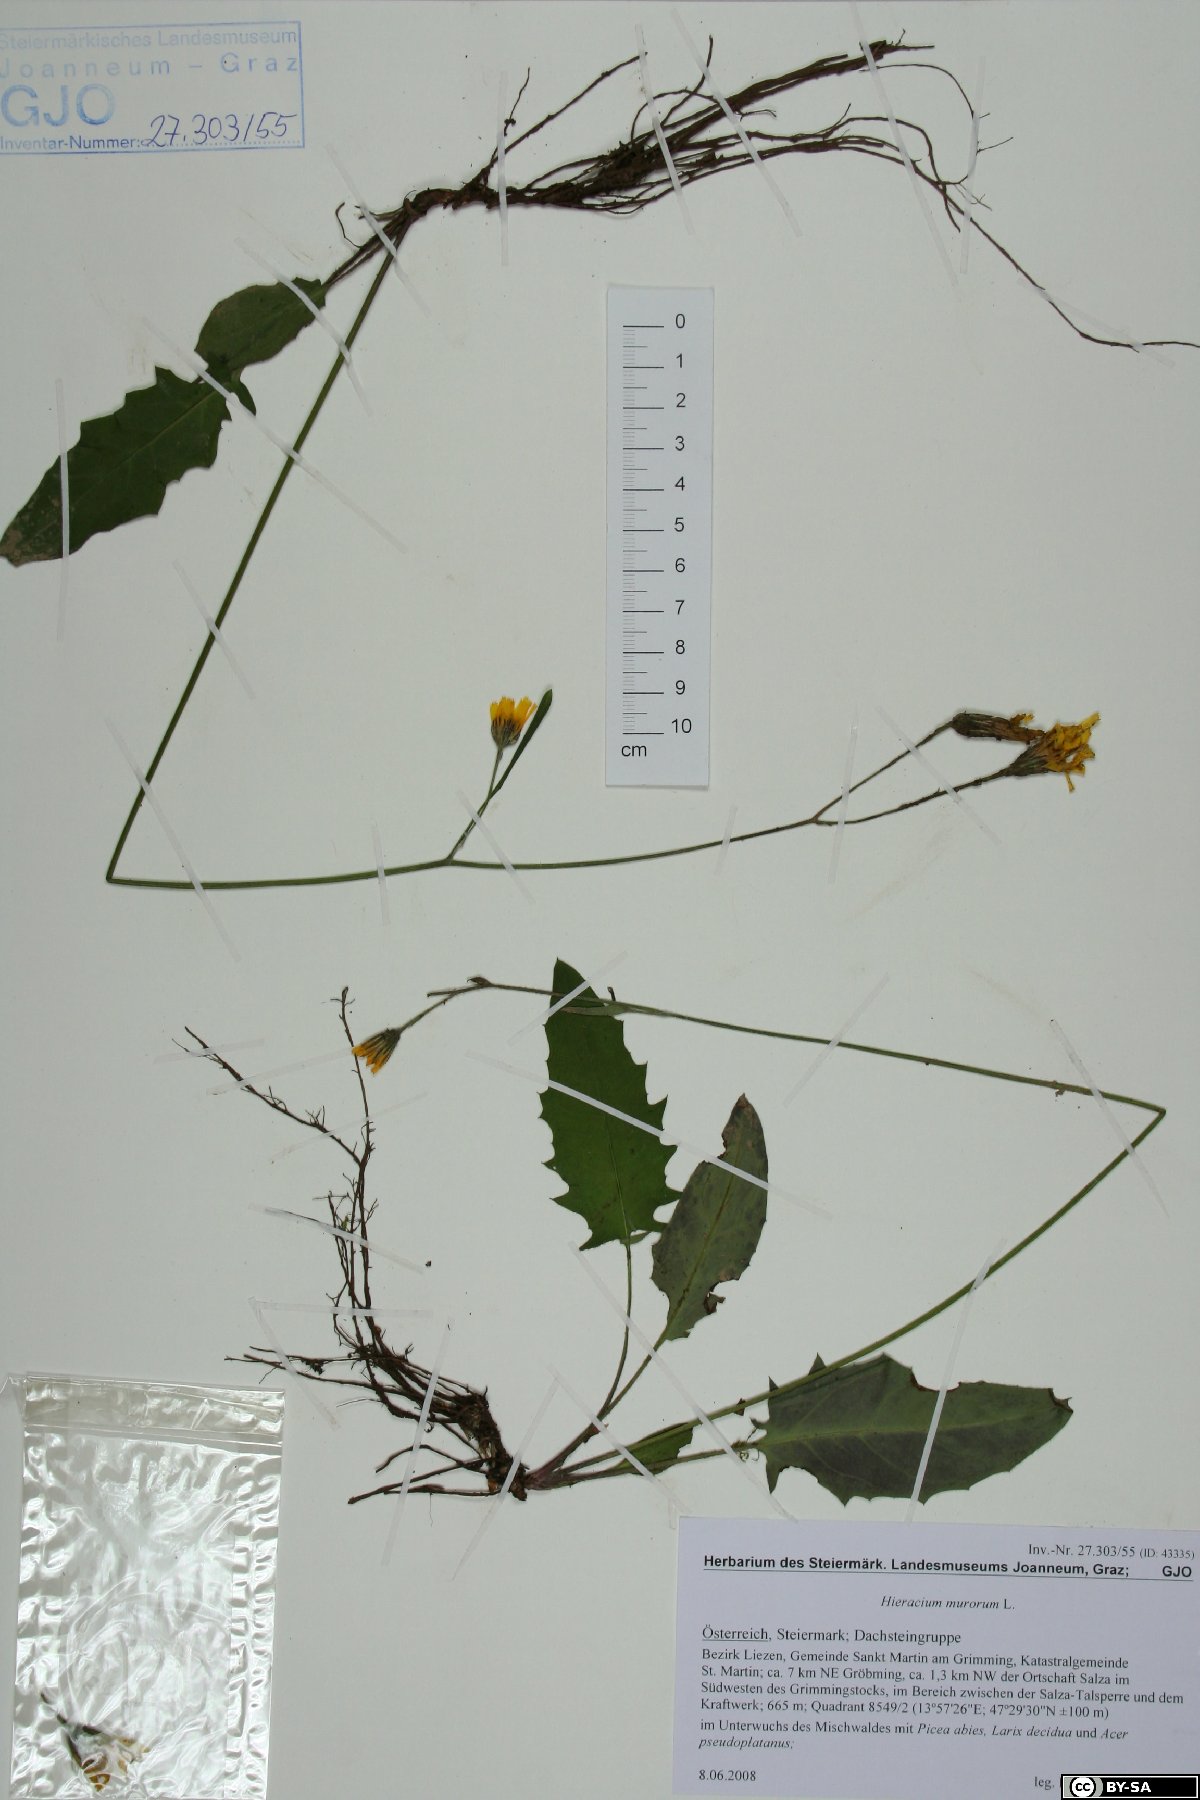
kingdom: Plantae
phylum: Tracheophyta
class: Magnoliopsida
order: Asterales
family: Asteraceae
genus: Hieracium
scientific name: Hieracium murorum
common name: Wall hawkweed
